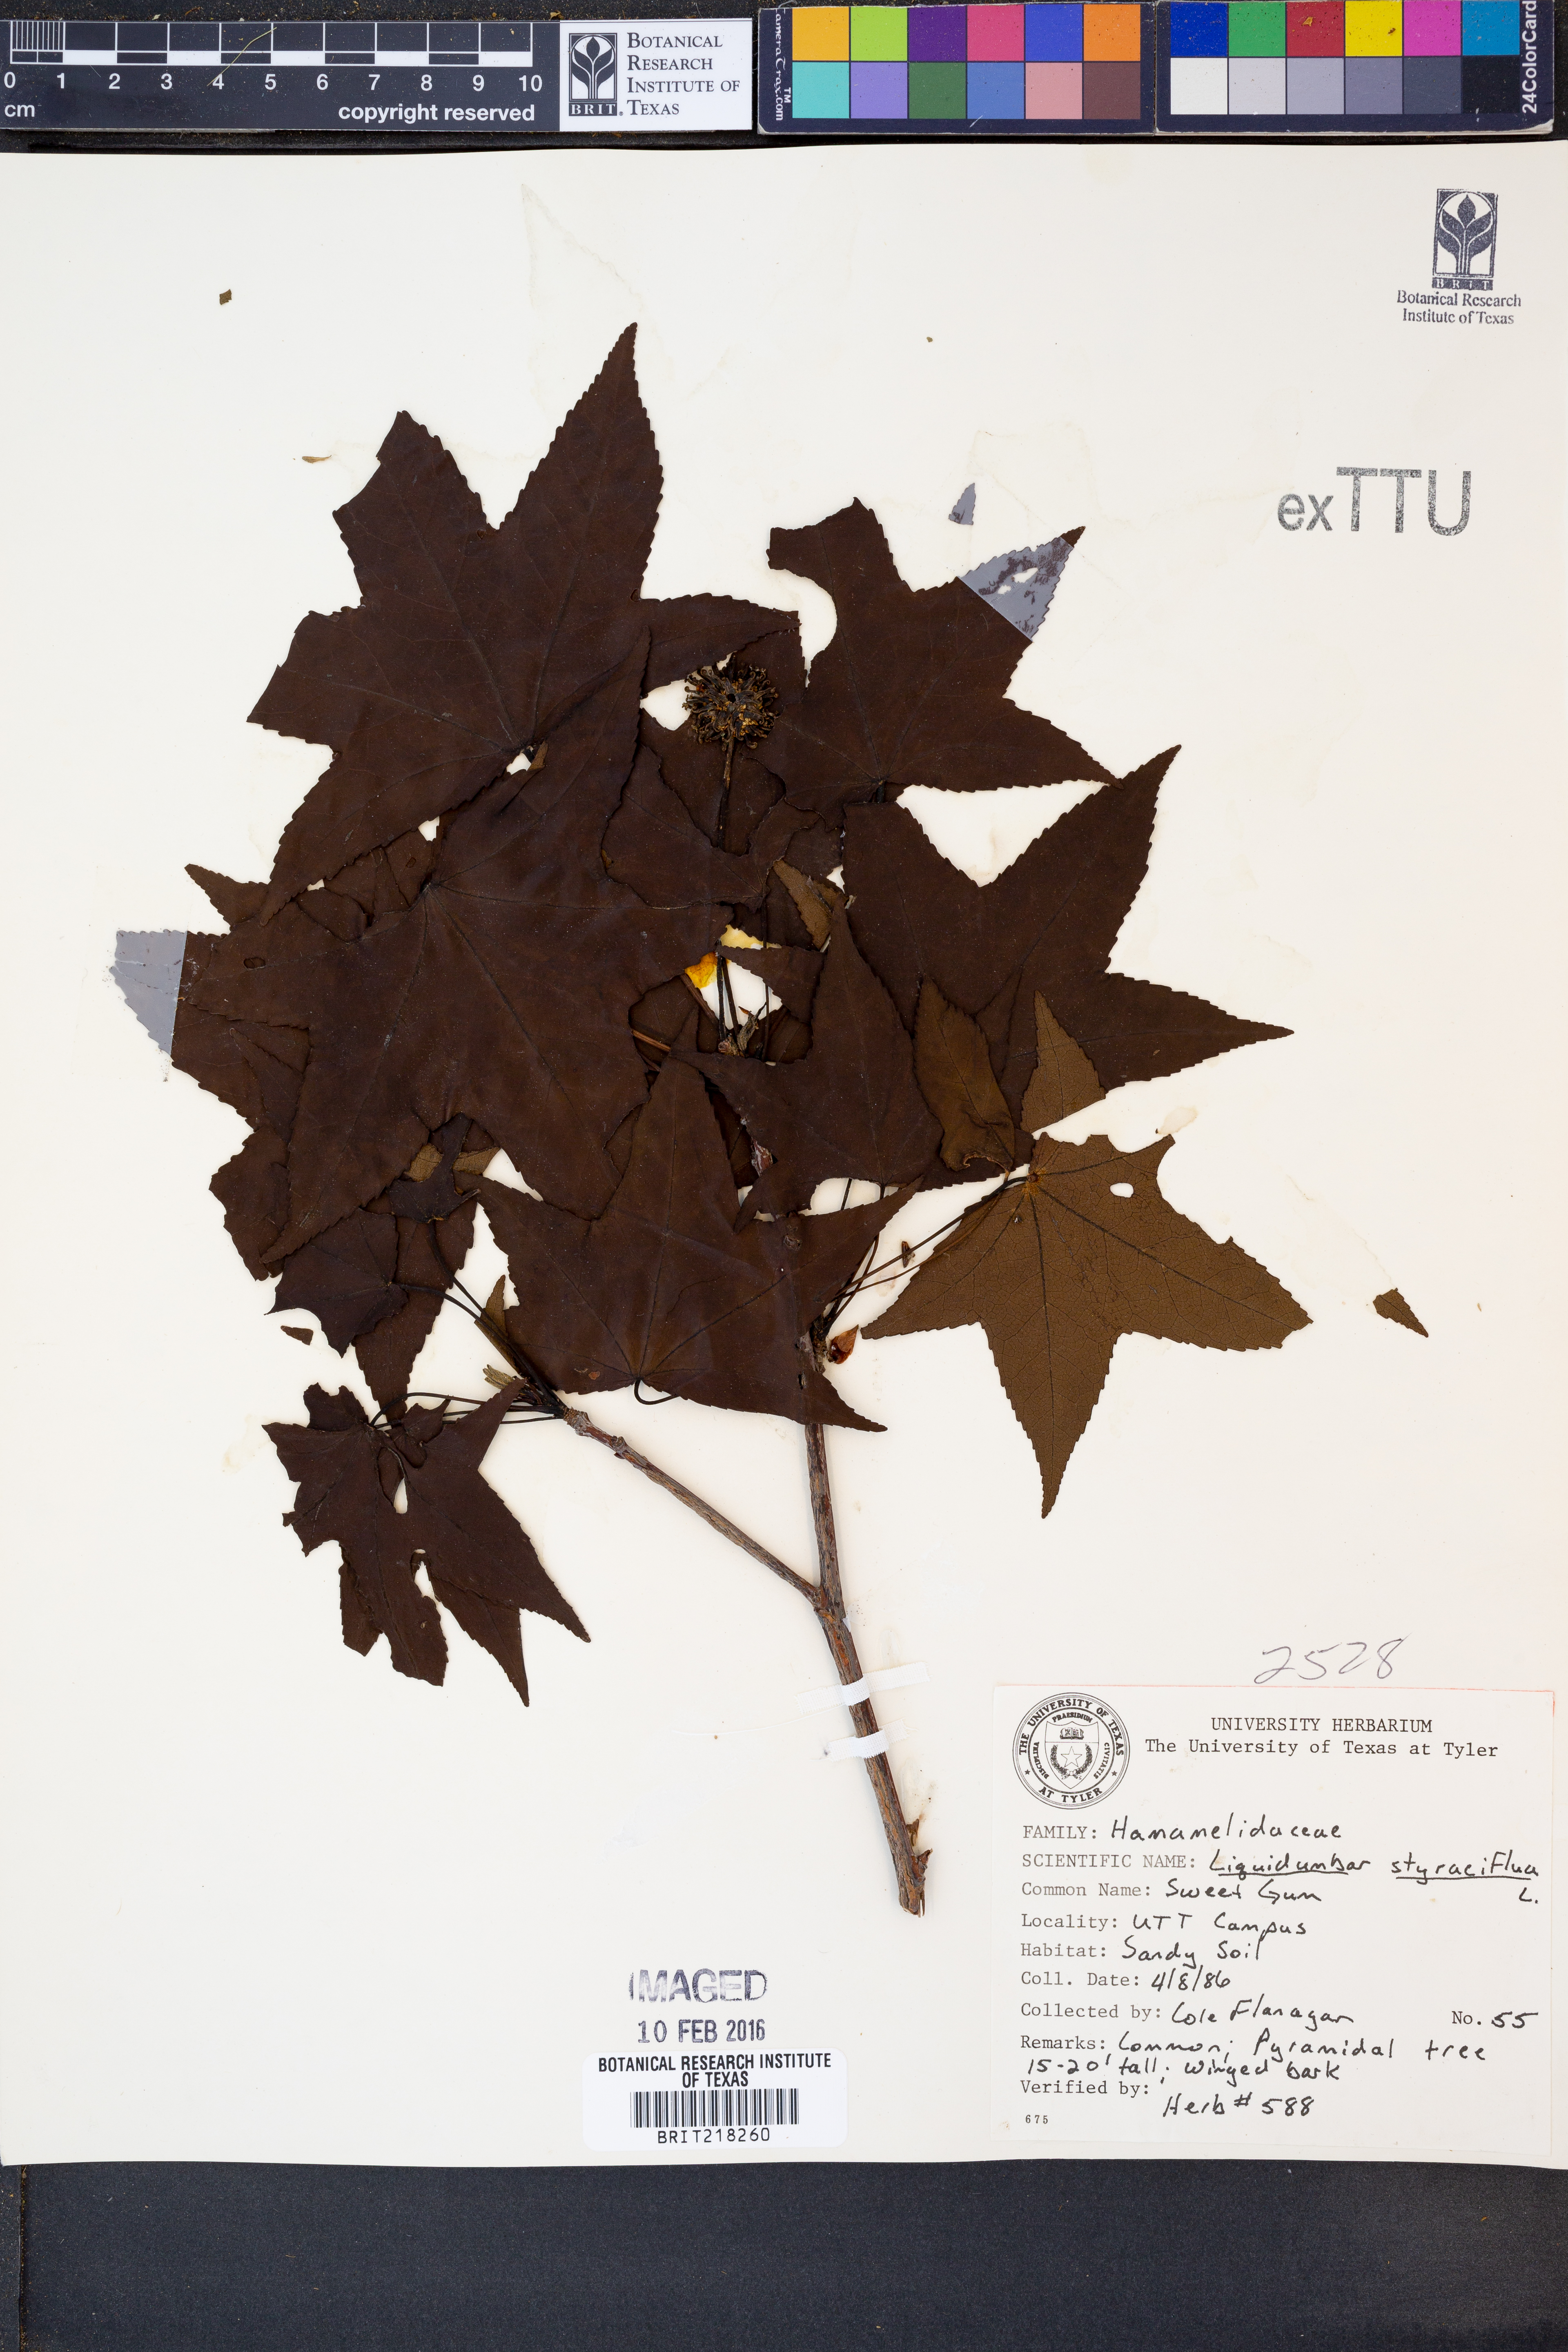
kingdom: Plantae
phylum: Tracheophyta
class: Magnoliopsida
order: Saxifragales
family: Altingiaceae
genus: Liquidambar
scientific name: Liquidambar styraciflua
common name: Sweet gum
